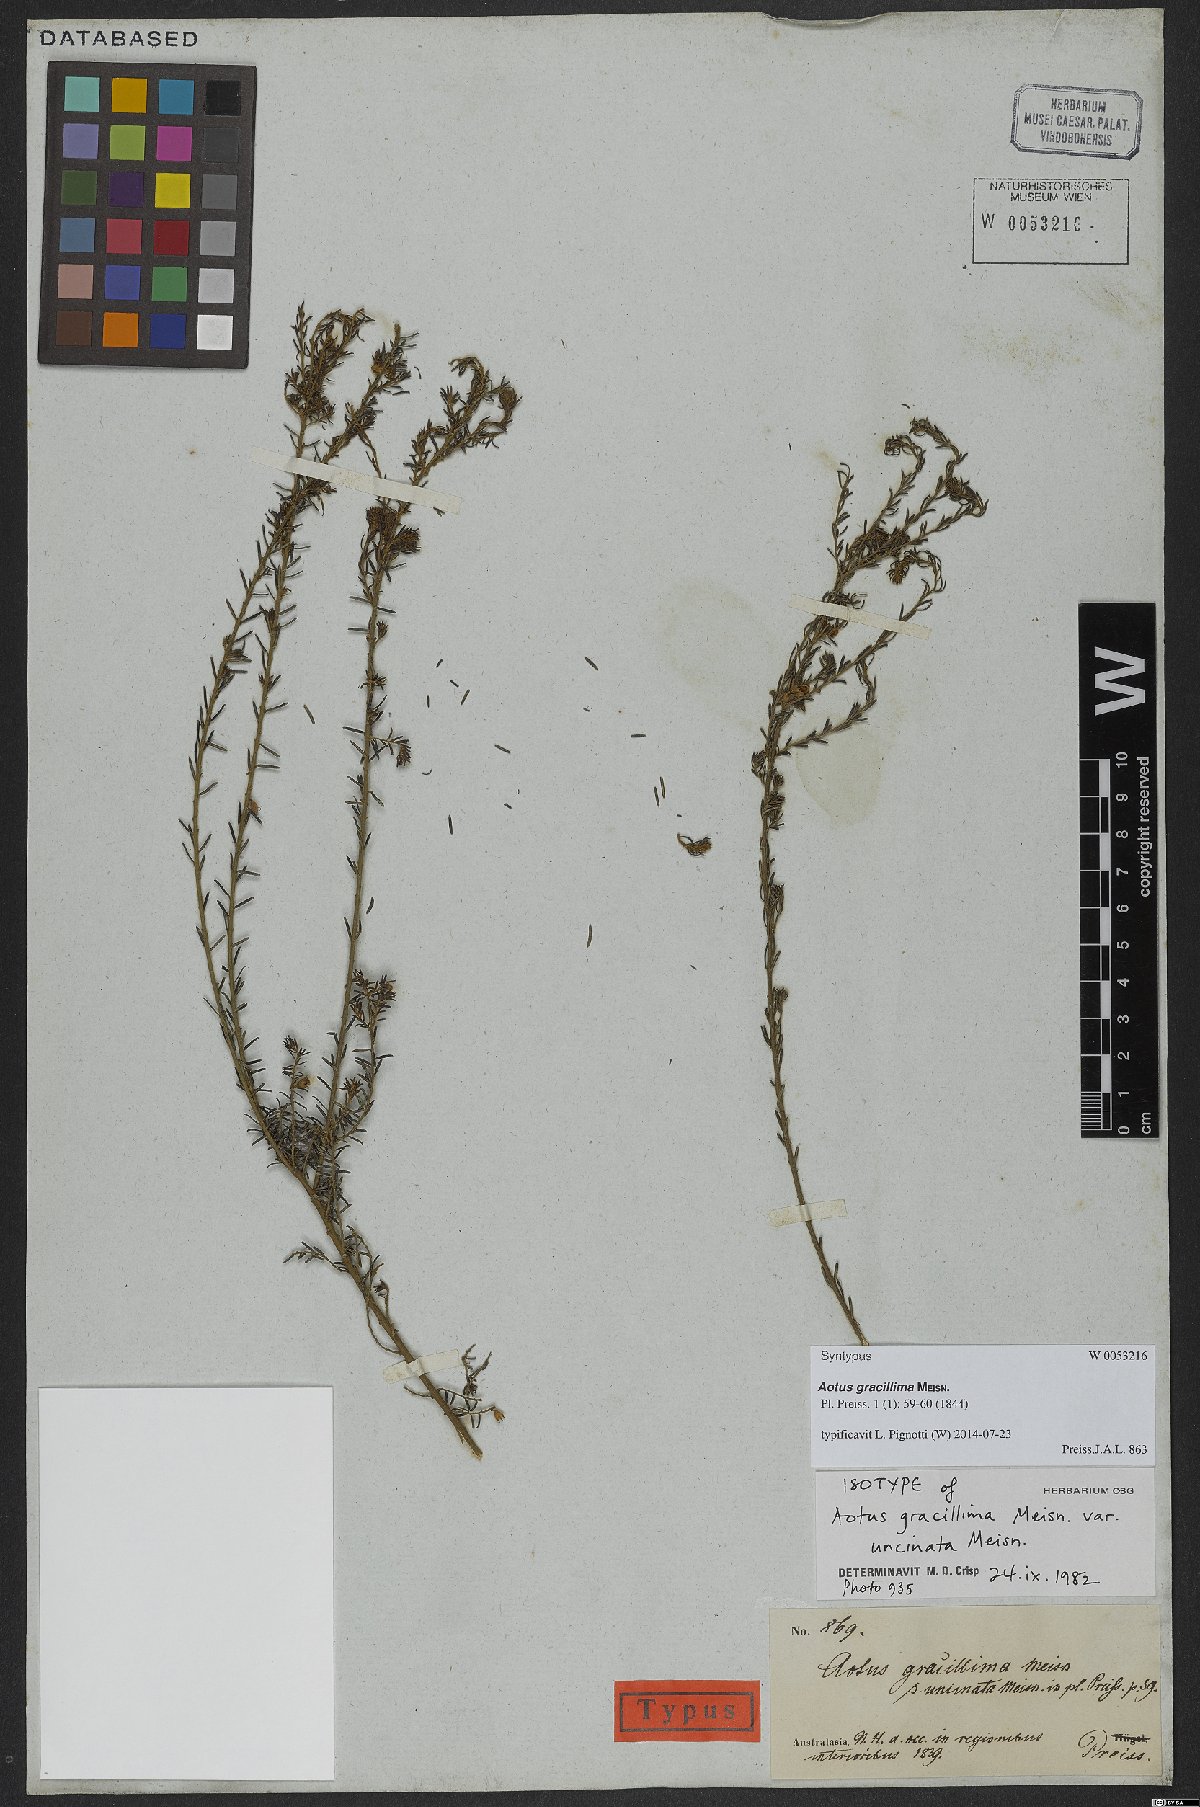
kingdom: Plantae
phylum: Tracheophyta
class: Magnoliopsida
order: Fabales
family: Fabaceae
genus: Aotus
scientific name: Aotus gracillima
